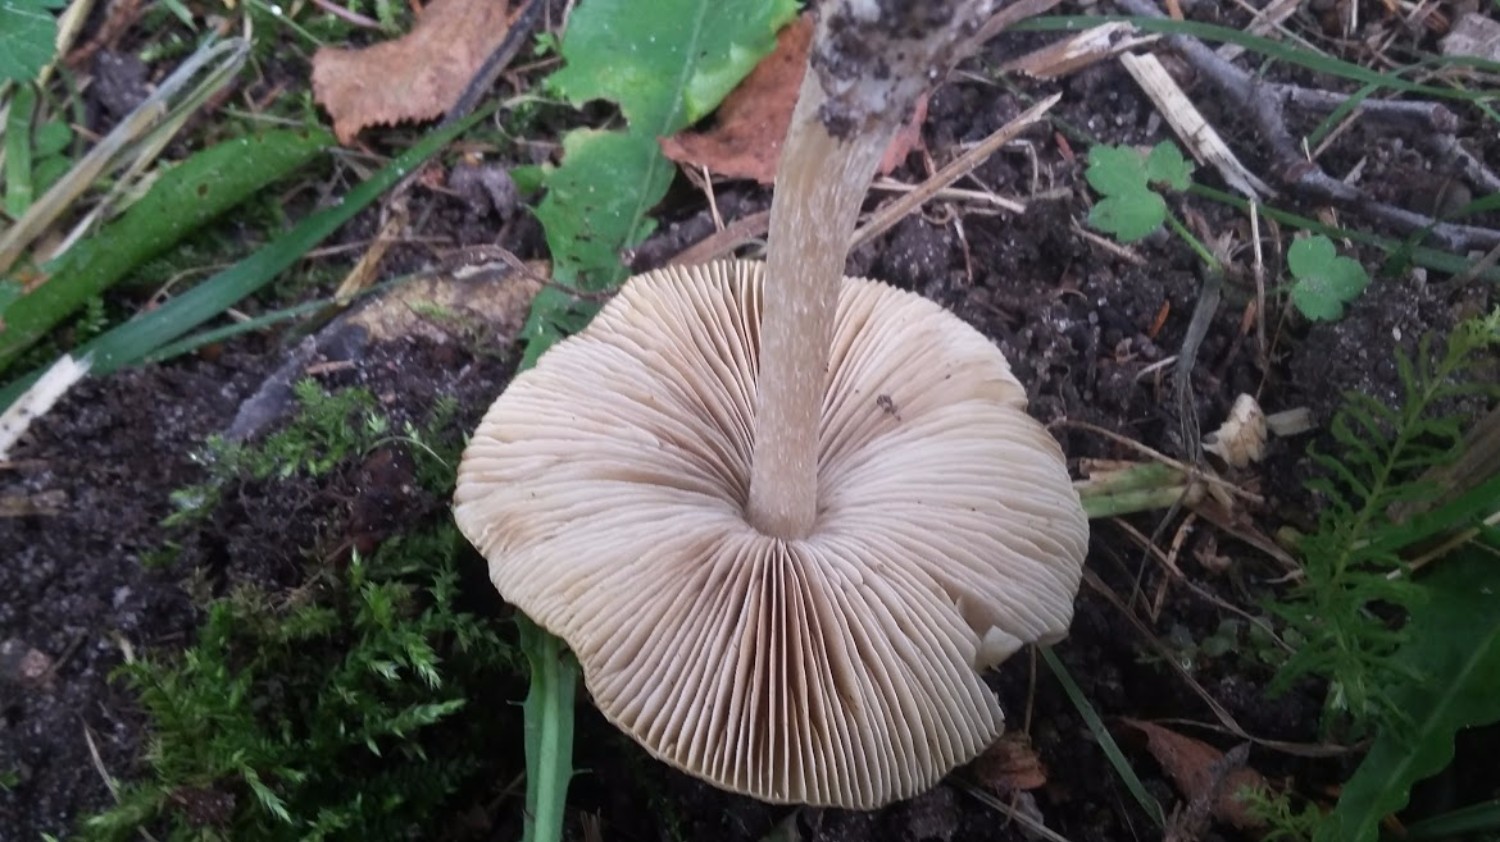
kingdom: Fungi
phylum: Basidiomycota
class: Agaricomycetes
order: Agaricales
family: Inocybaceae
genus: Inocybe
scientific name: Inocybe
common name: trævlhat
